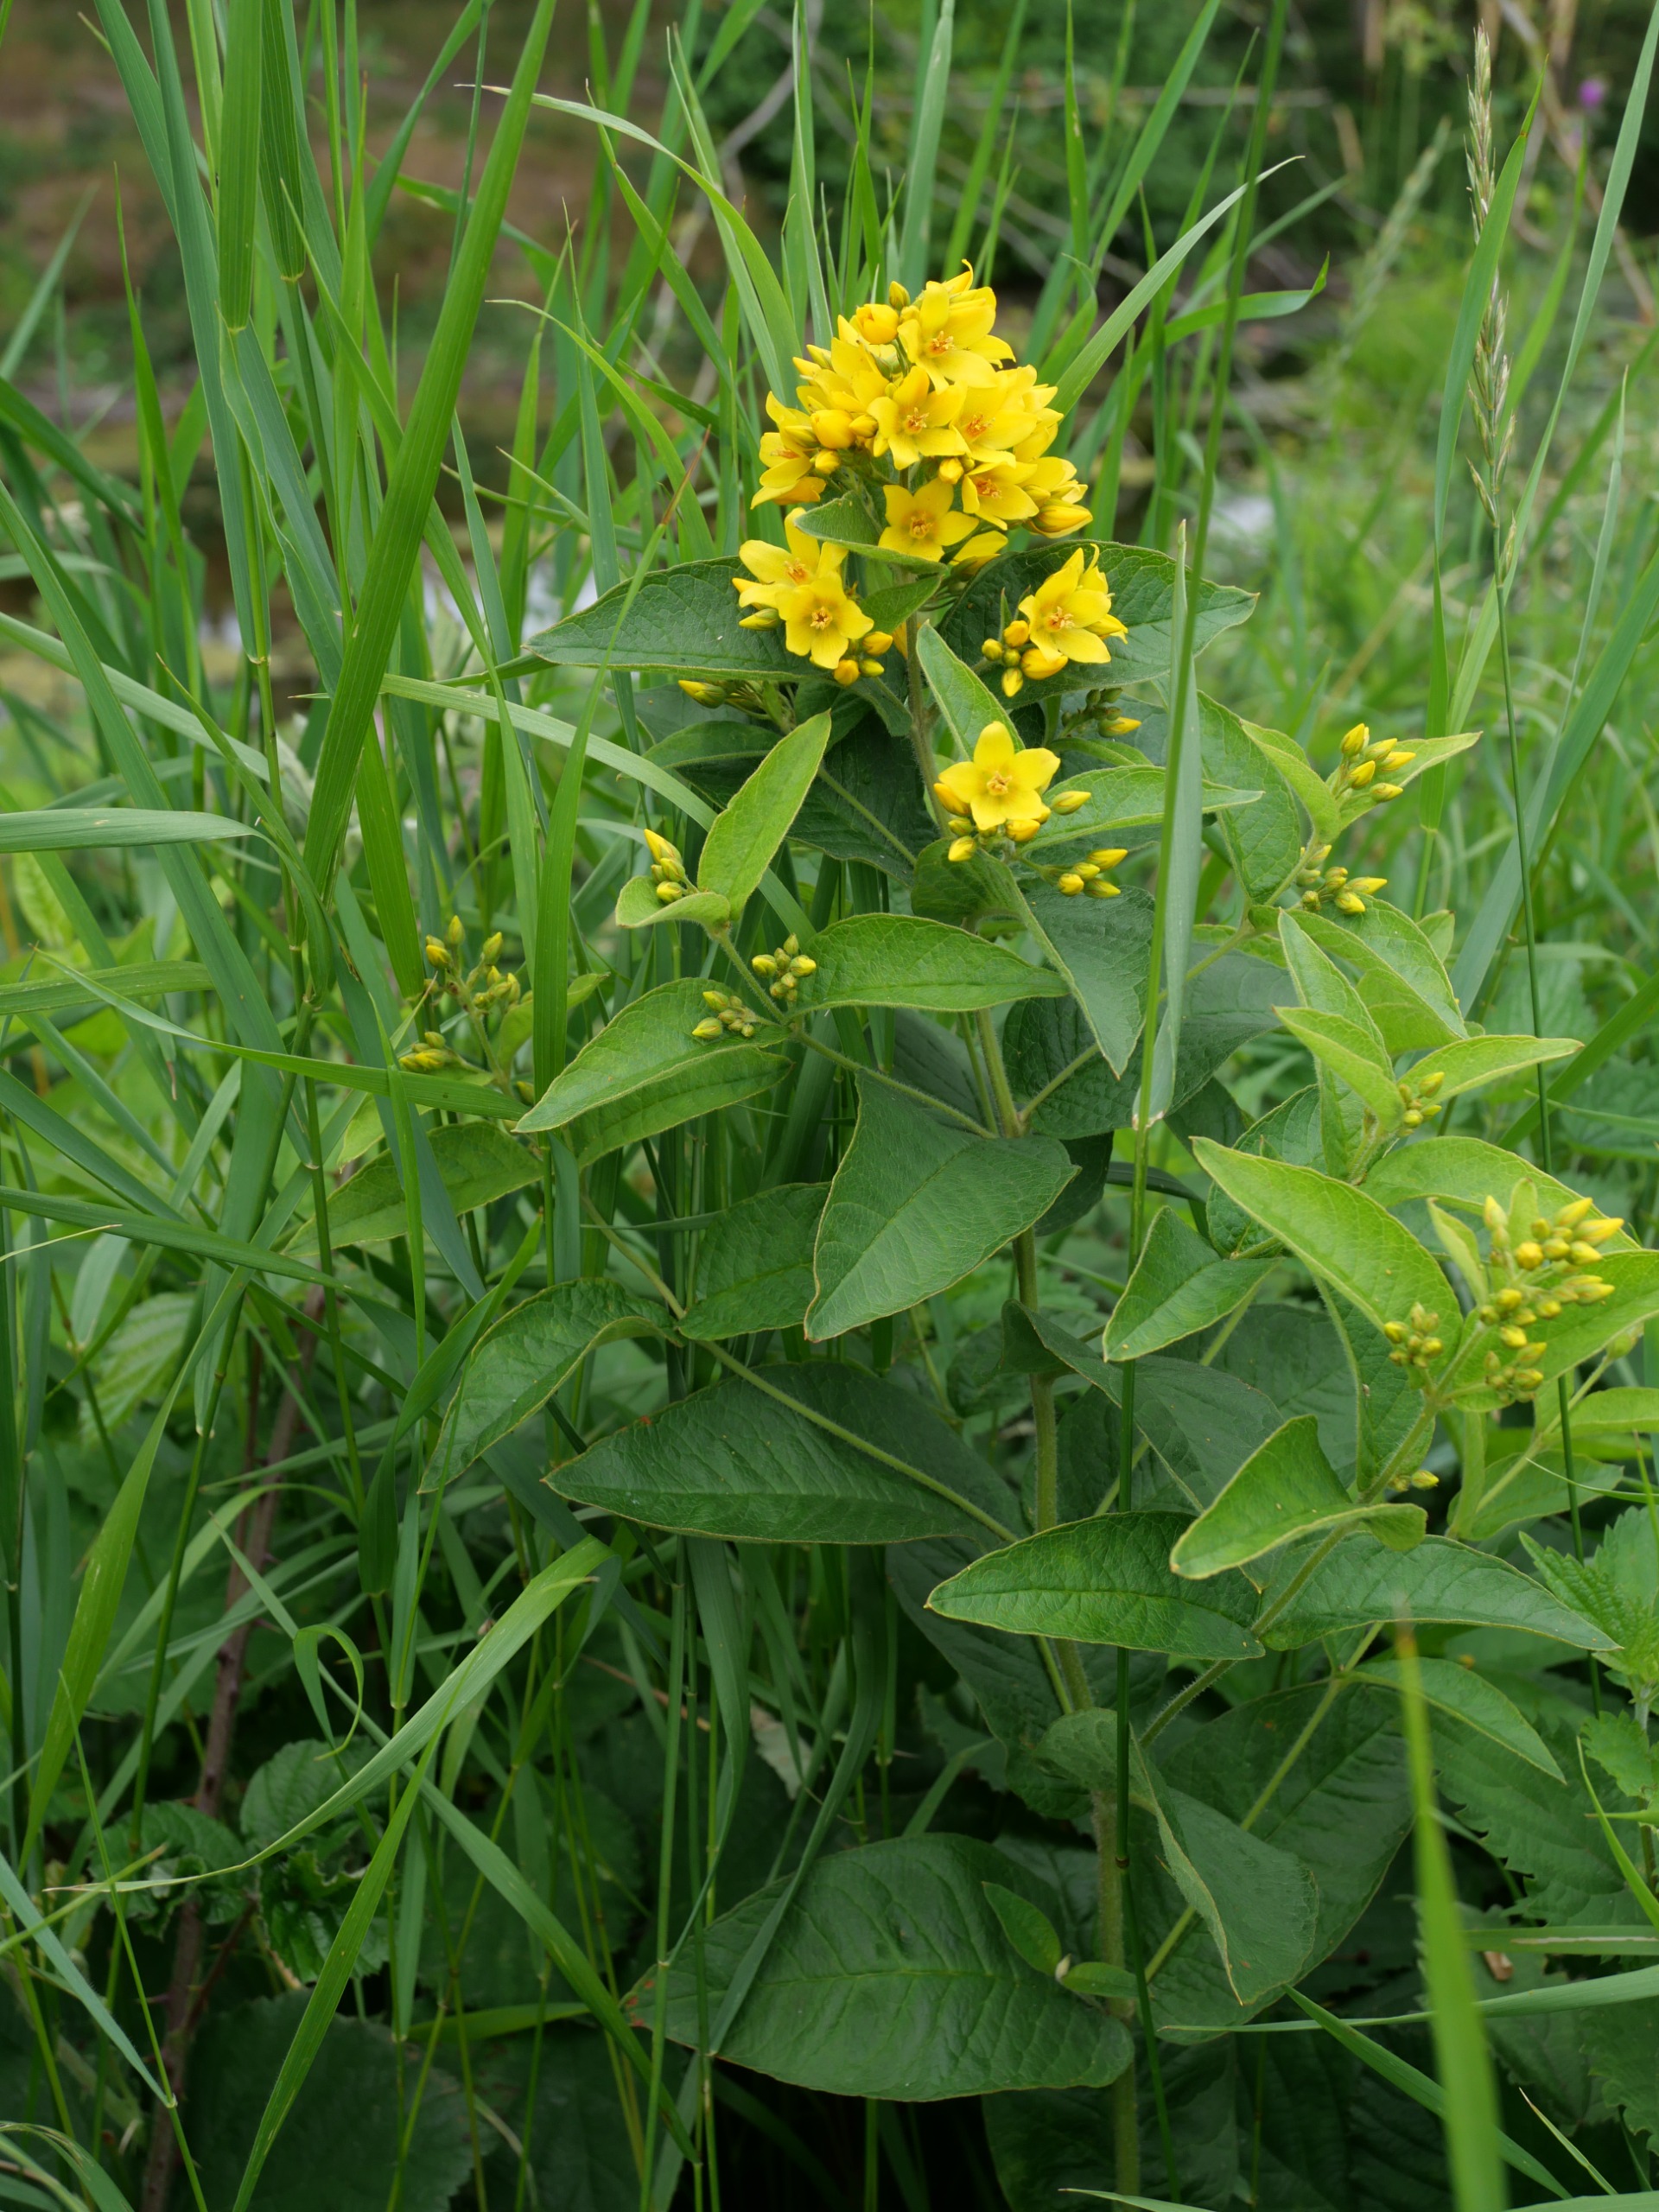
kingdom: Plantae
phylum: Tracheophyta
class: Magnoliopsida
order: Ericales
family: Primulaceae
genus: Lysimachia
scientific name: Lysimachia vulgaris
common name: Almindelig fredløs
